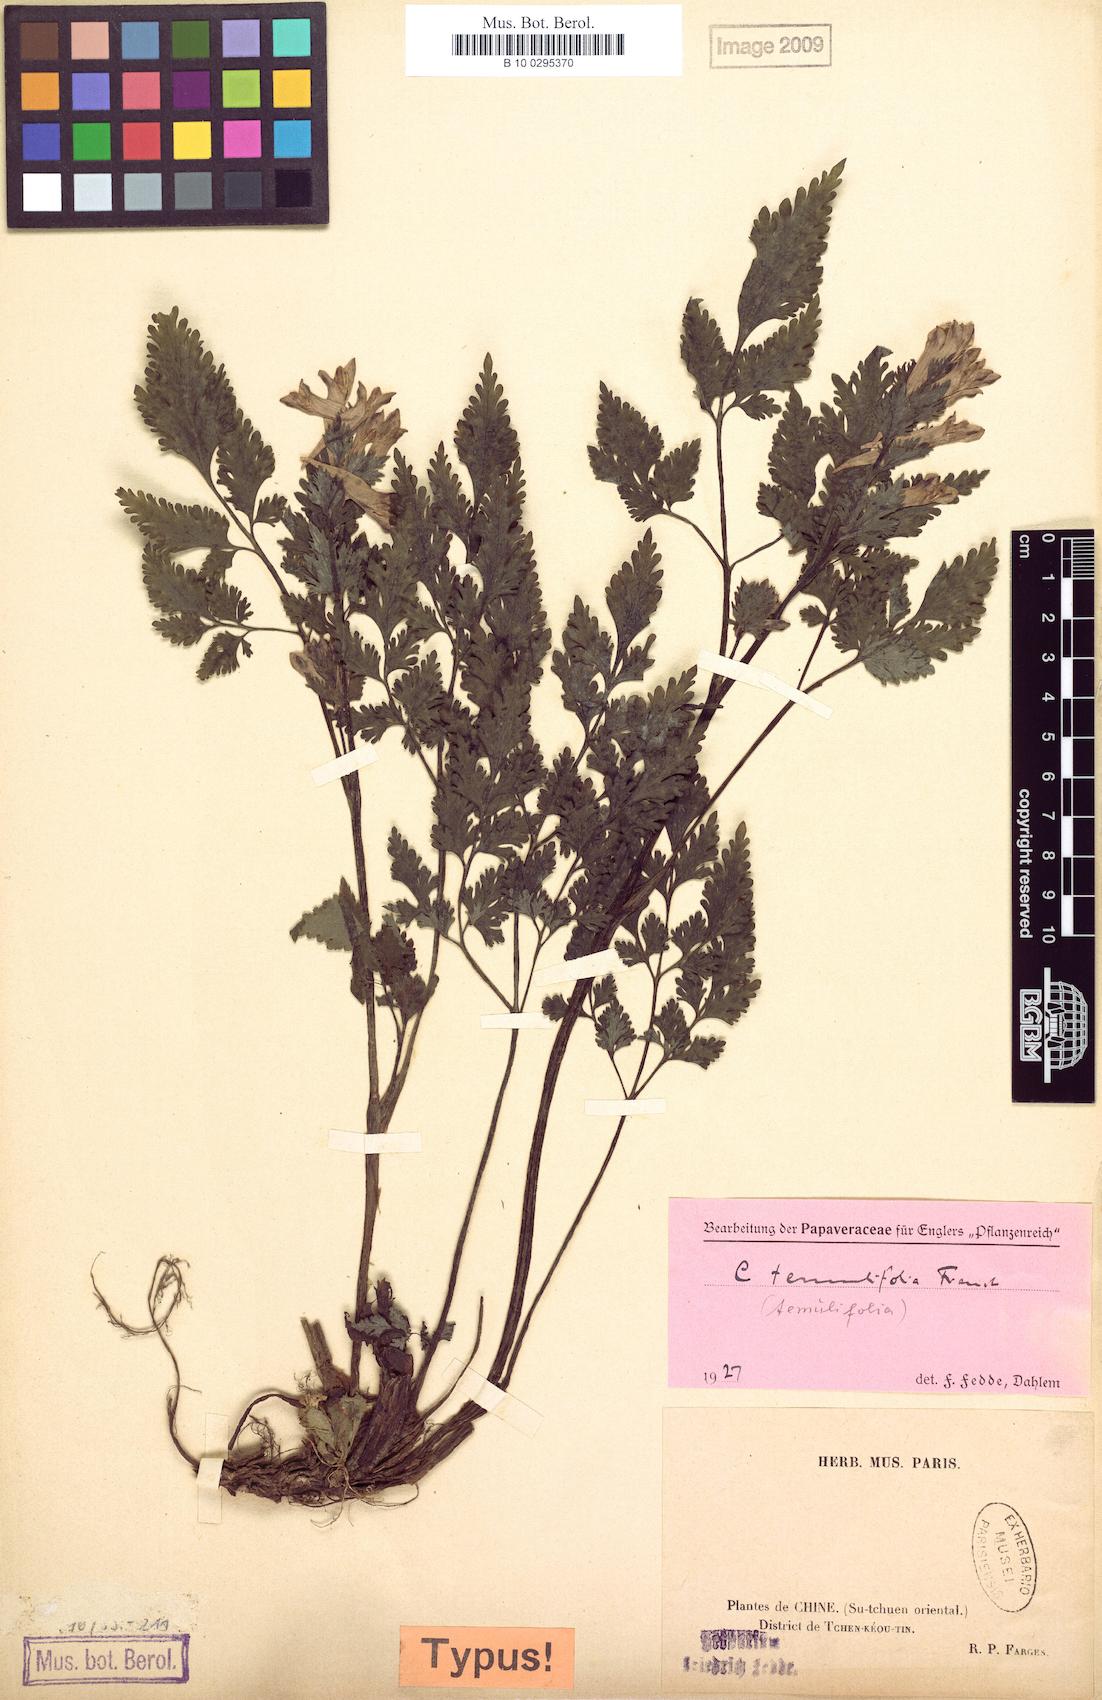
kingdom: Plantae
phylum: Tracheophyta
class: Magnoliopsida
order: Ranunculales
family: Papaveraceae
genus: Corydalis
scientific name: Corydalis temulifolia
